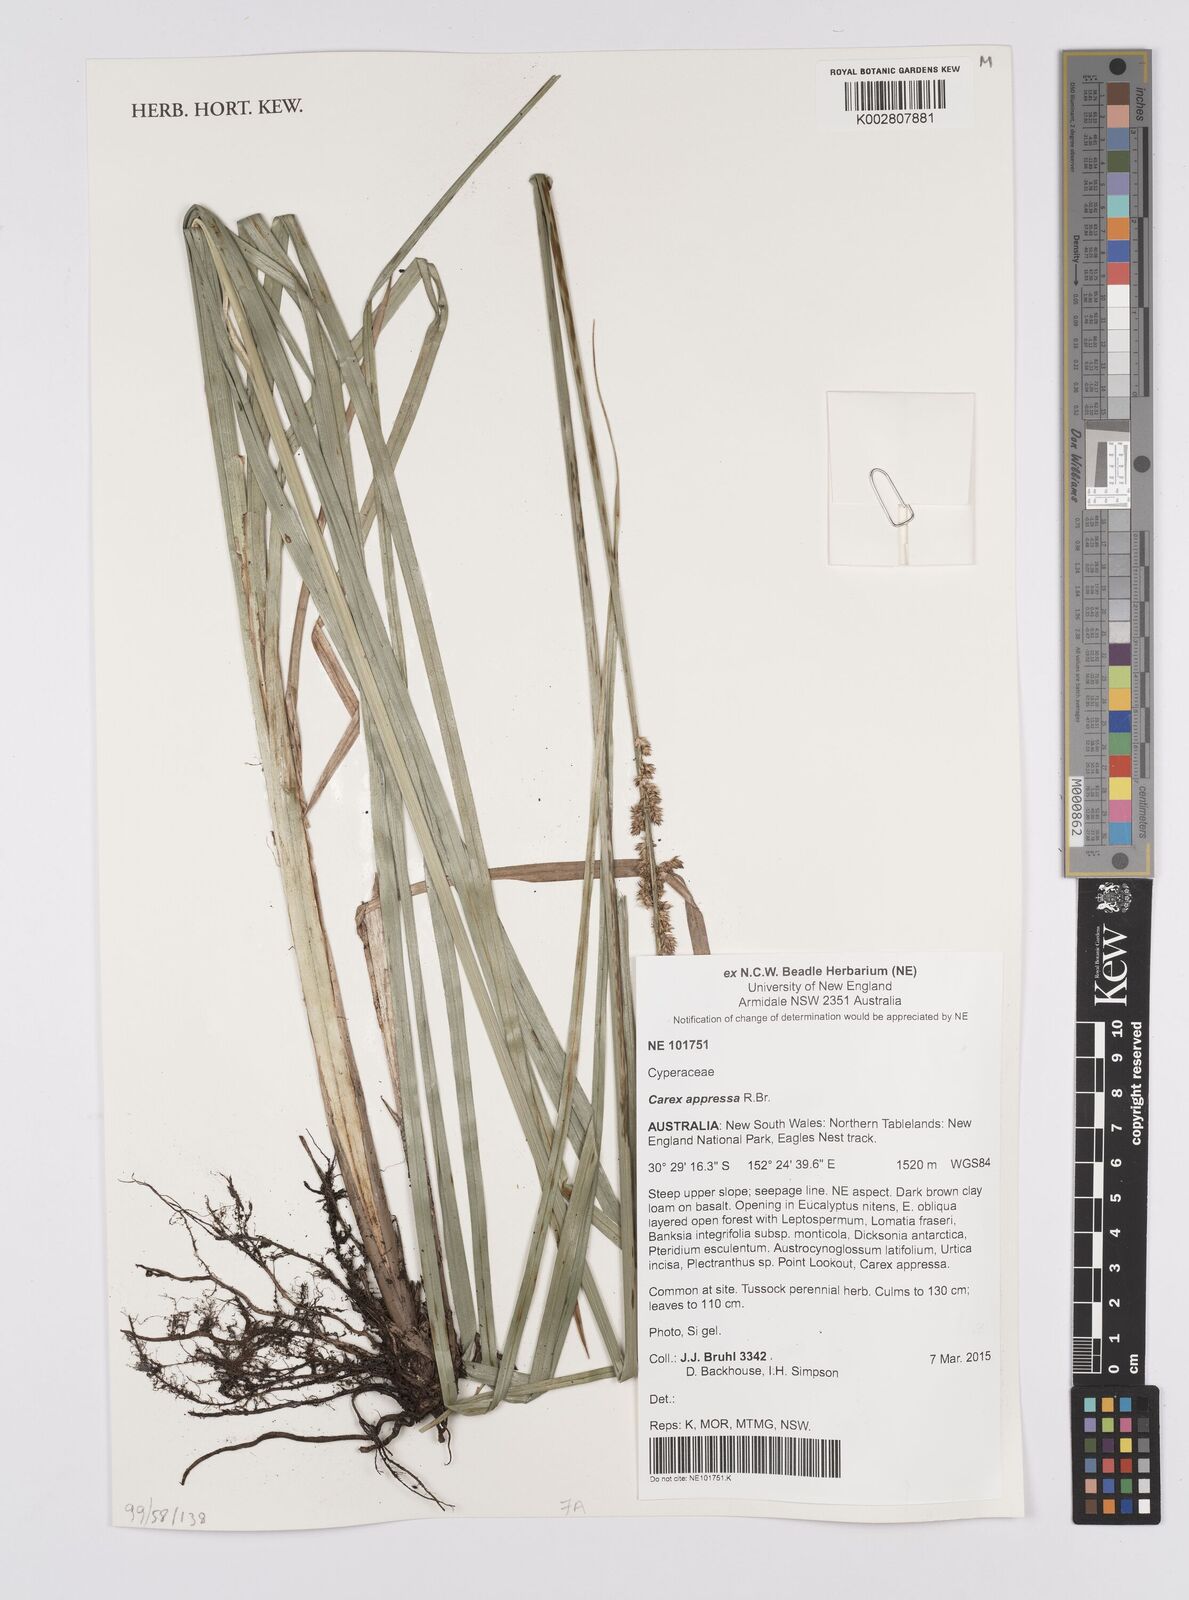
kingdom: Plantae
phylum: Tracheophyta
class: Liliopsida
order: Poales
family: Cyperaceae
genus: Carex
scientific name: Carex appressa
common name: Tussock sedge
